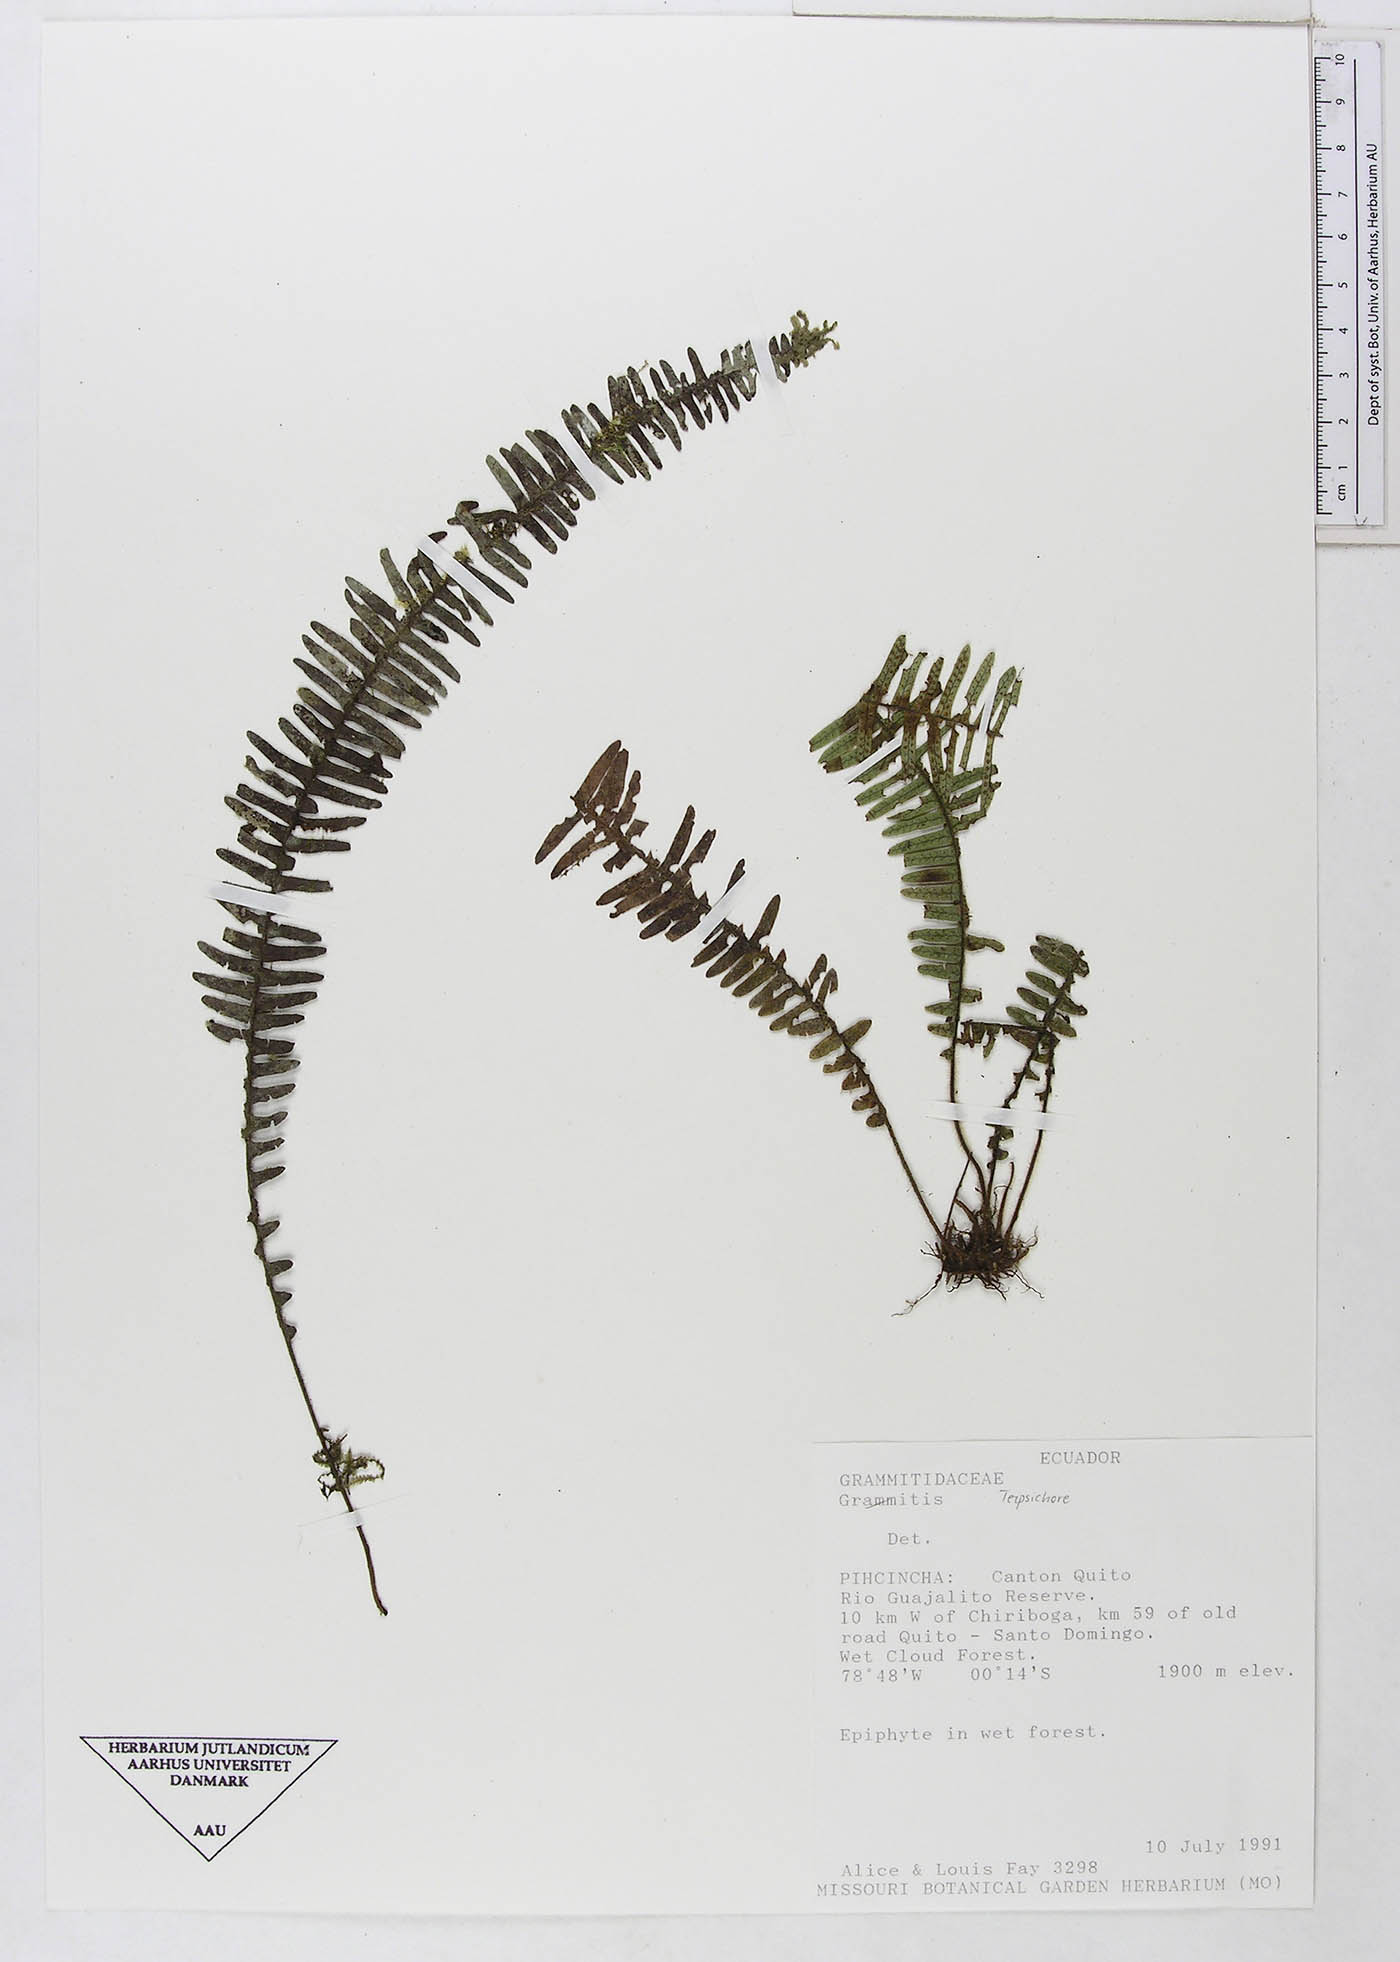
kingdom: Plantae
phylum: Tracheophyta
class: Polypodiopsida
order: Polypodiales
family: Polypodiaceae
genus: Terpsichore
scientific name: Terpsichore
